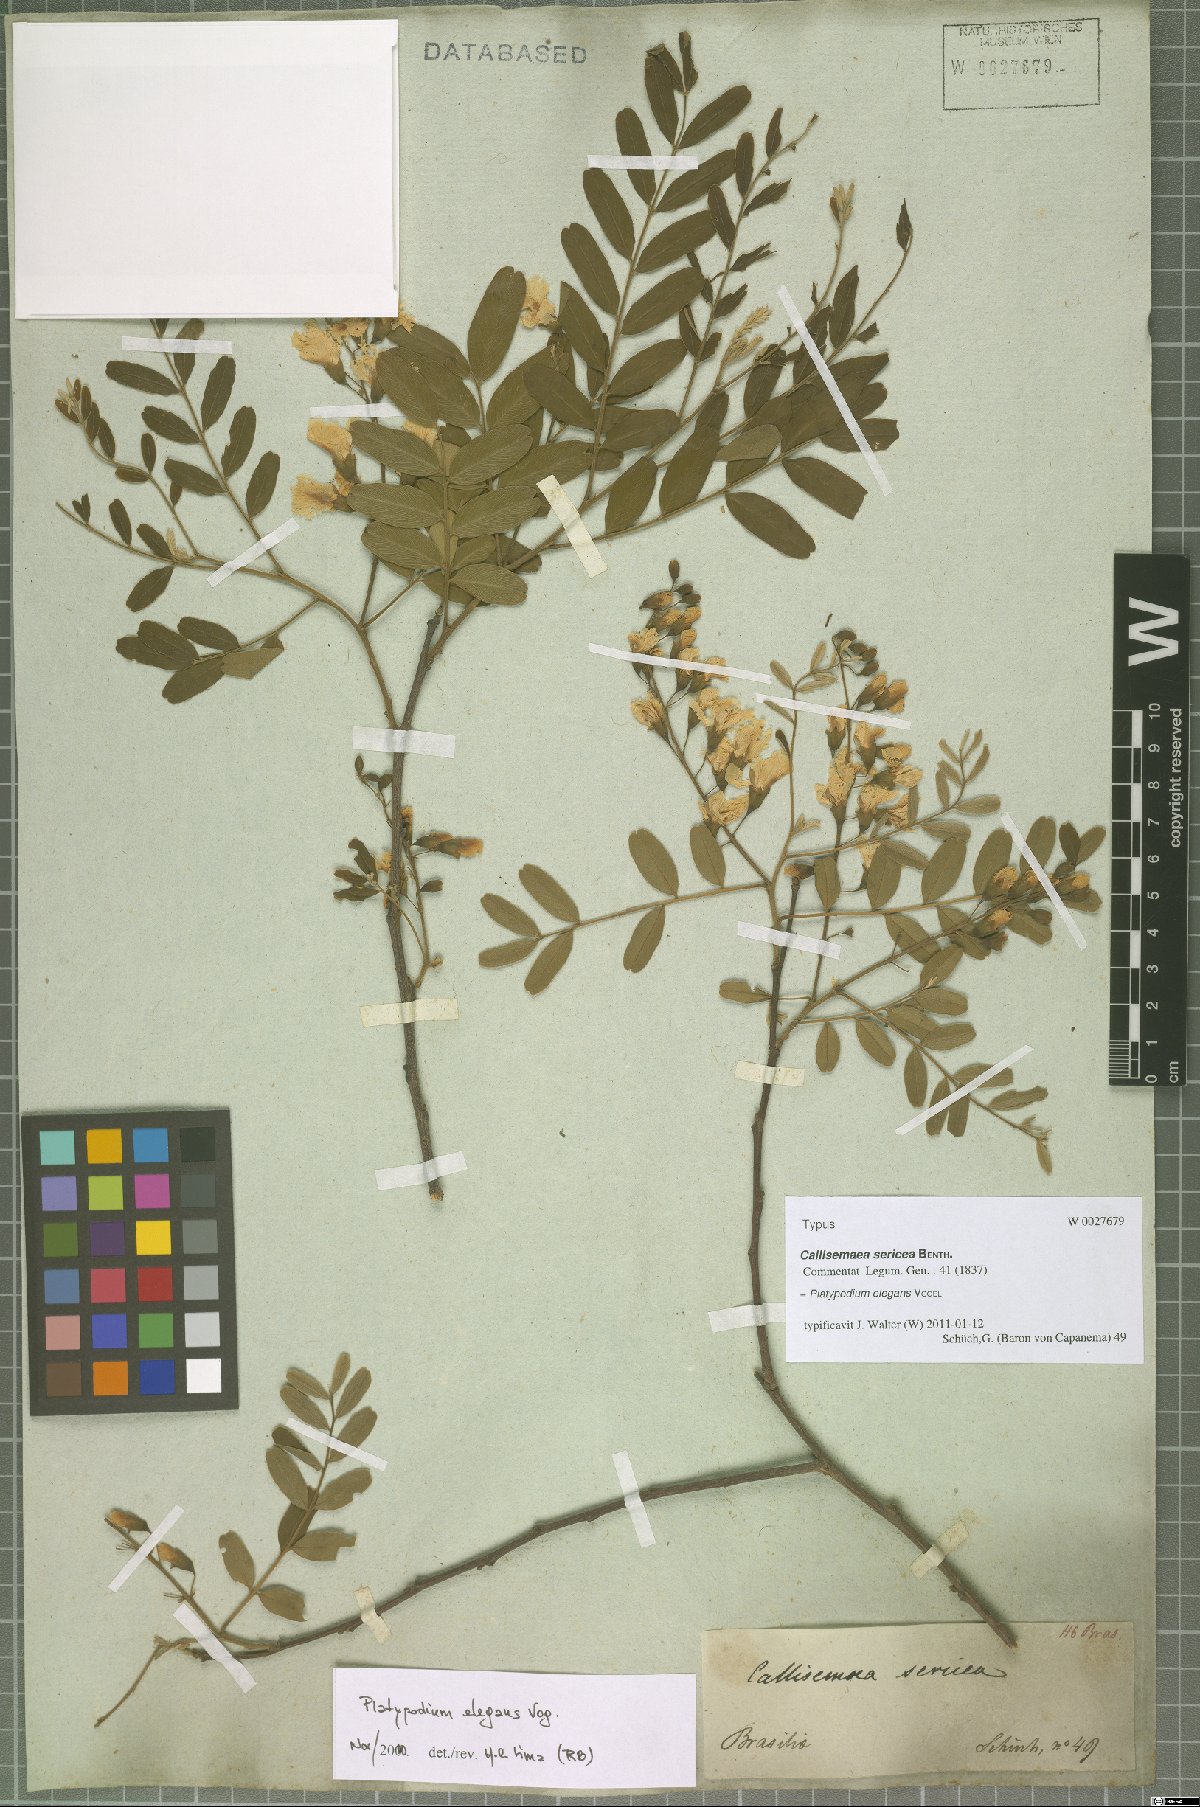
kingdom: Plantae
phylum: Tracheophyta
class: Magnoliopsida
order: Fabales
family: Fabaceae
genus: Platypodium
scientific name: Platypodium elegans
